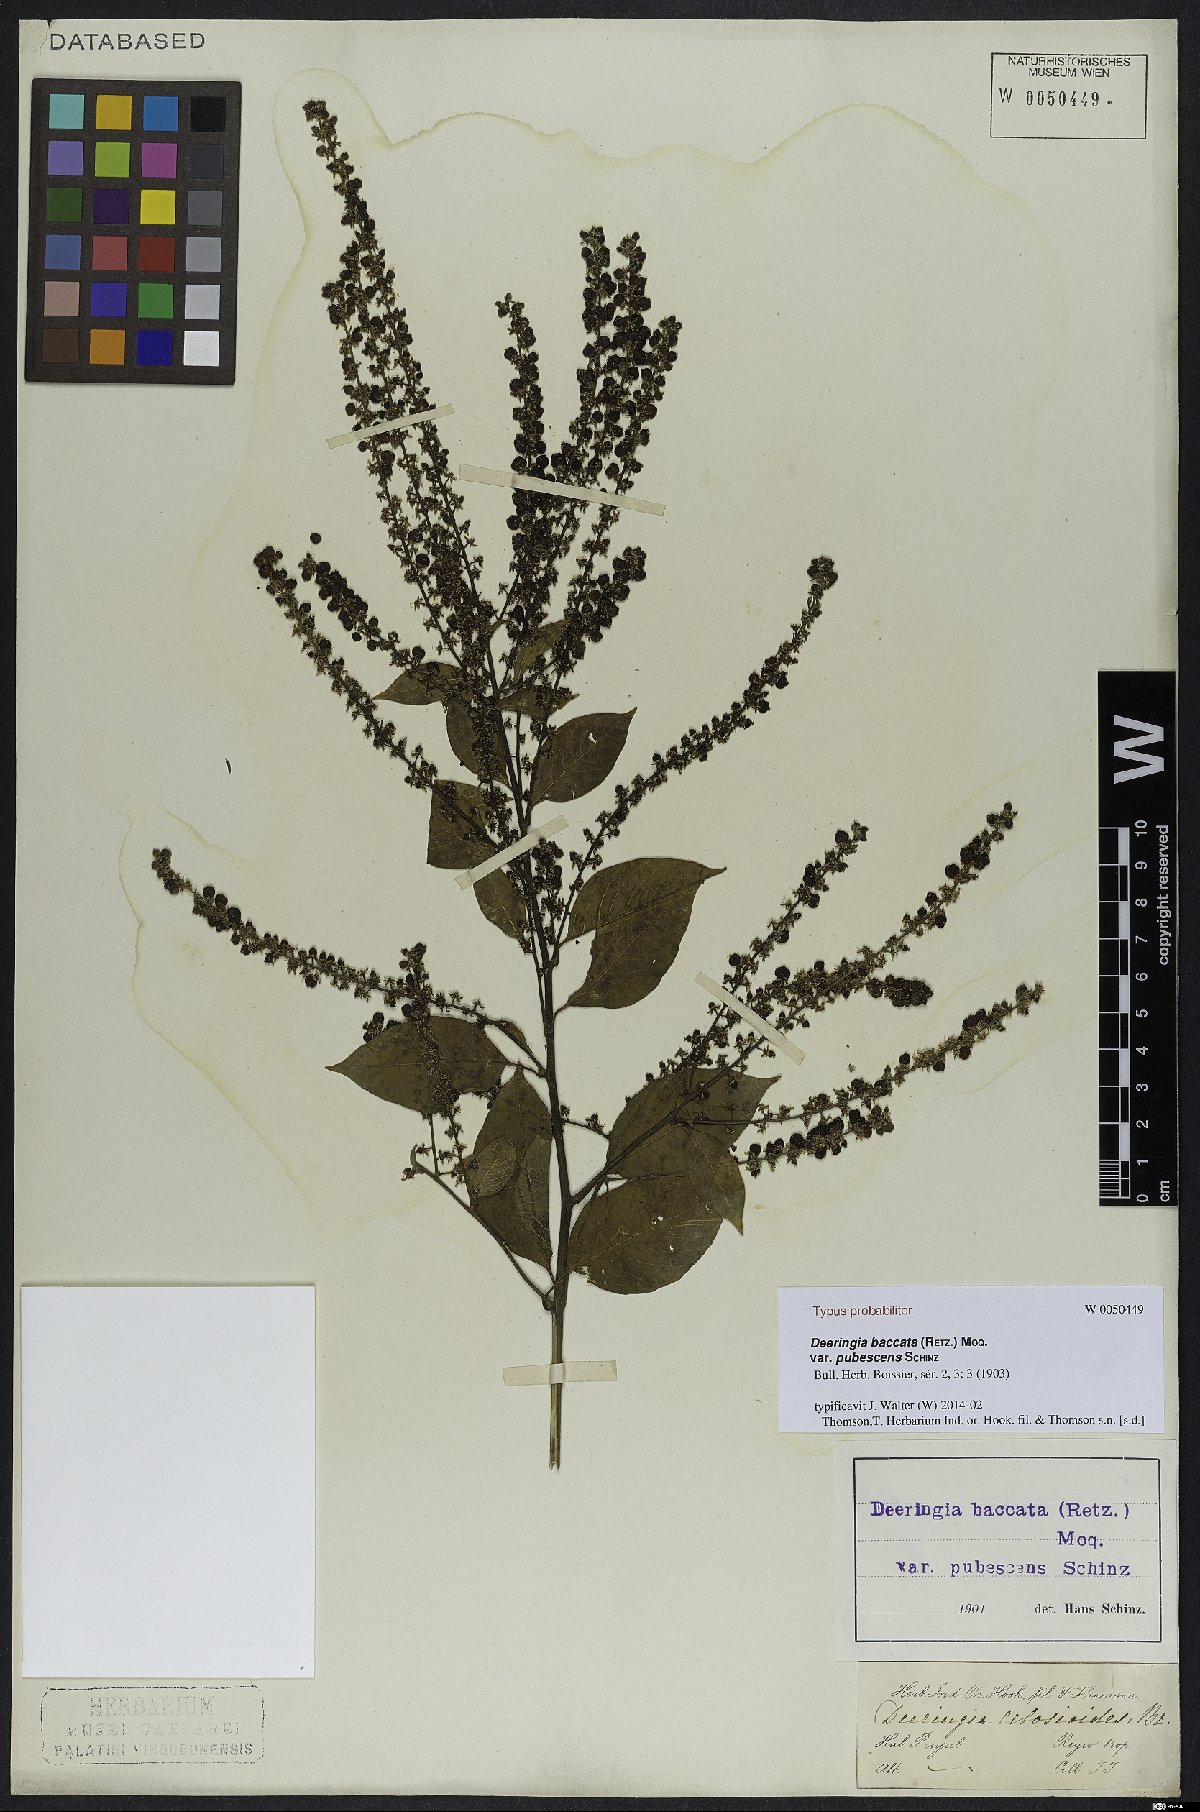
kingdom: Plantae
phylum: Tracheophyta
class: Magnoliopsida
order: Caryophyllales
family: Amaranthaceae
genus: Deeringia
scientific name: Deeringia amaranthoides
